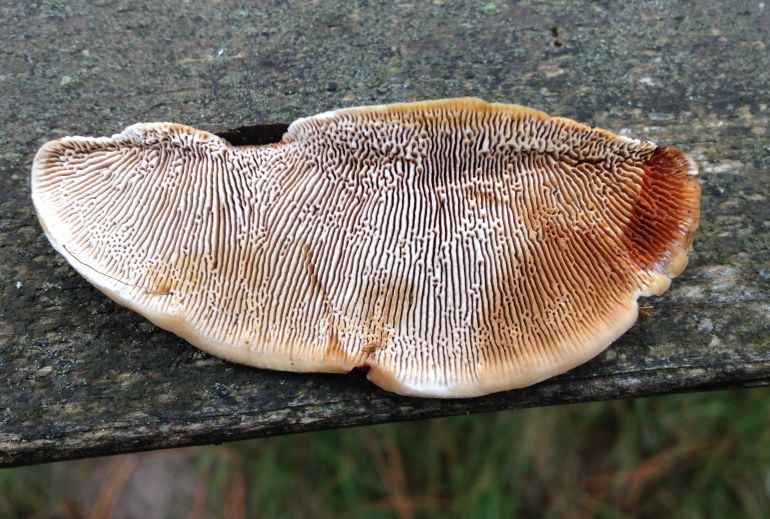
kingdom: Fungi
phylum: Basidiomycota
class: Agaricomycetes
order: Gloeophyllales
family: Gloeophyllaceae
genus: Gloeophyllum
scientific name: Gloeophyllum sepiarium
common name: fyrre-korkhat
